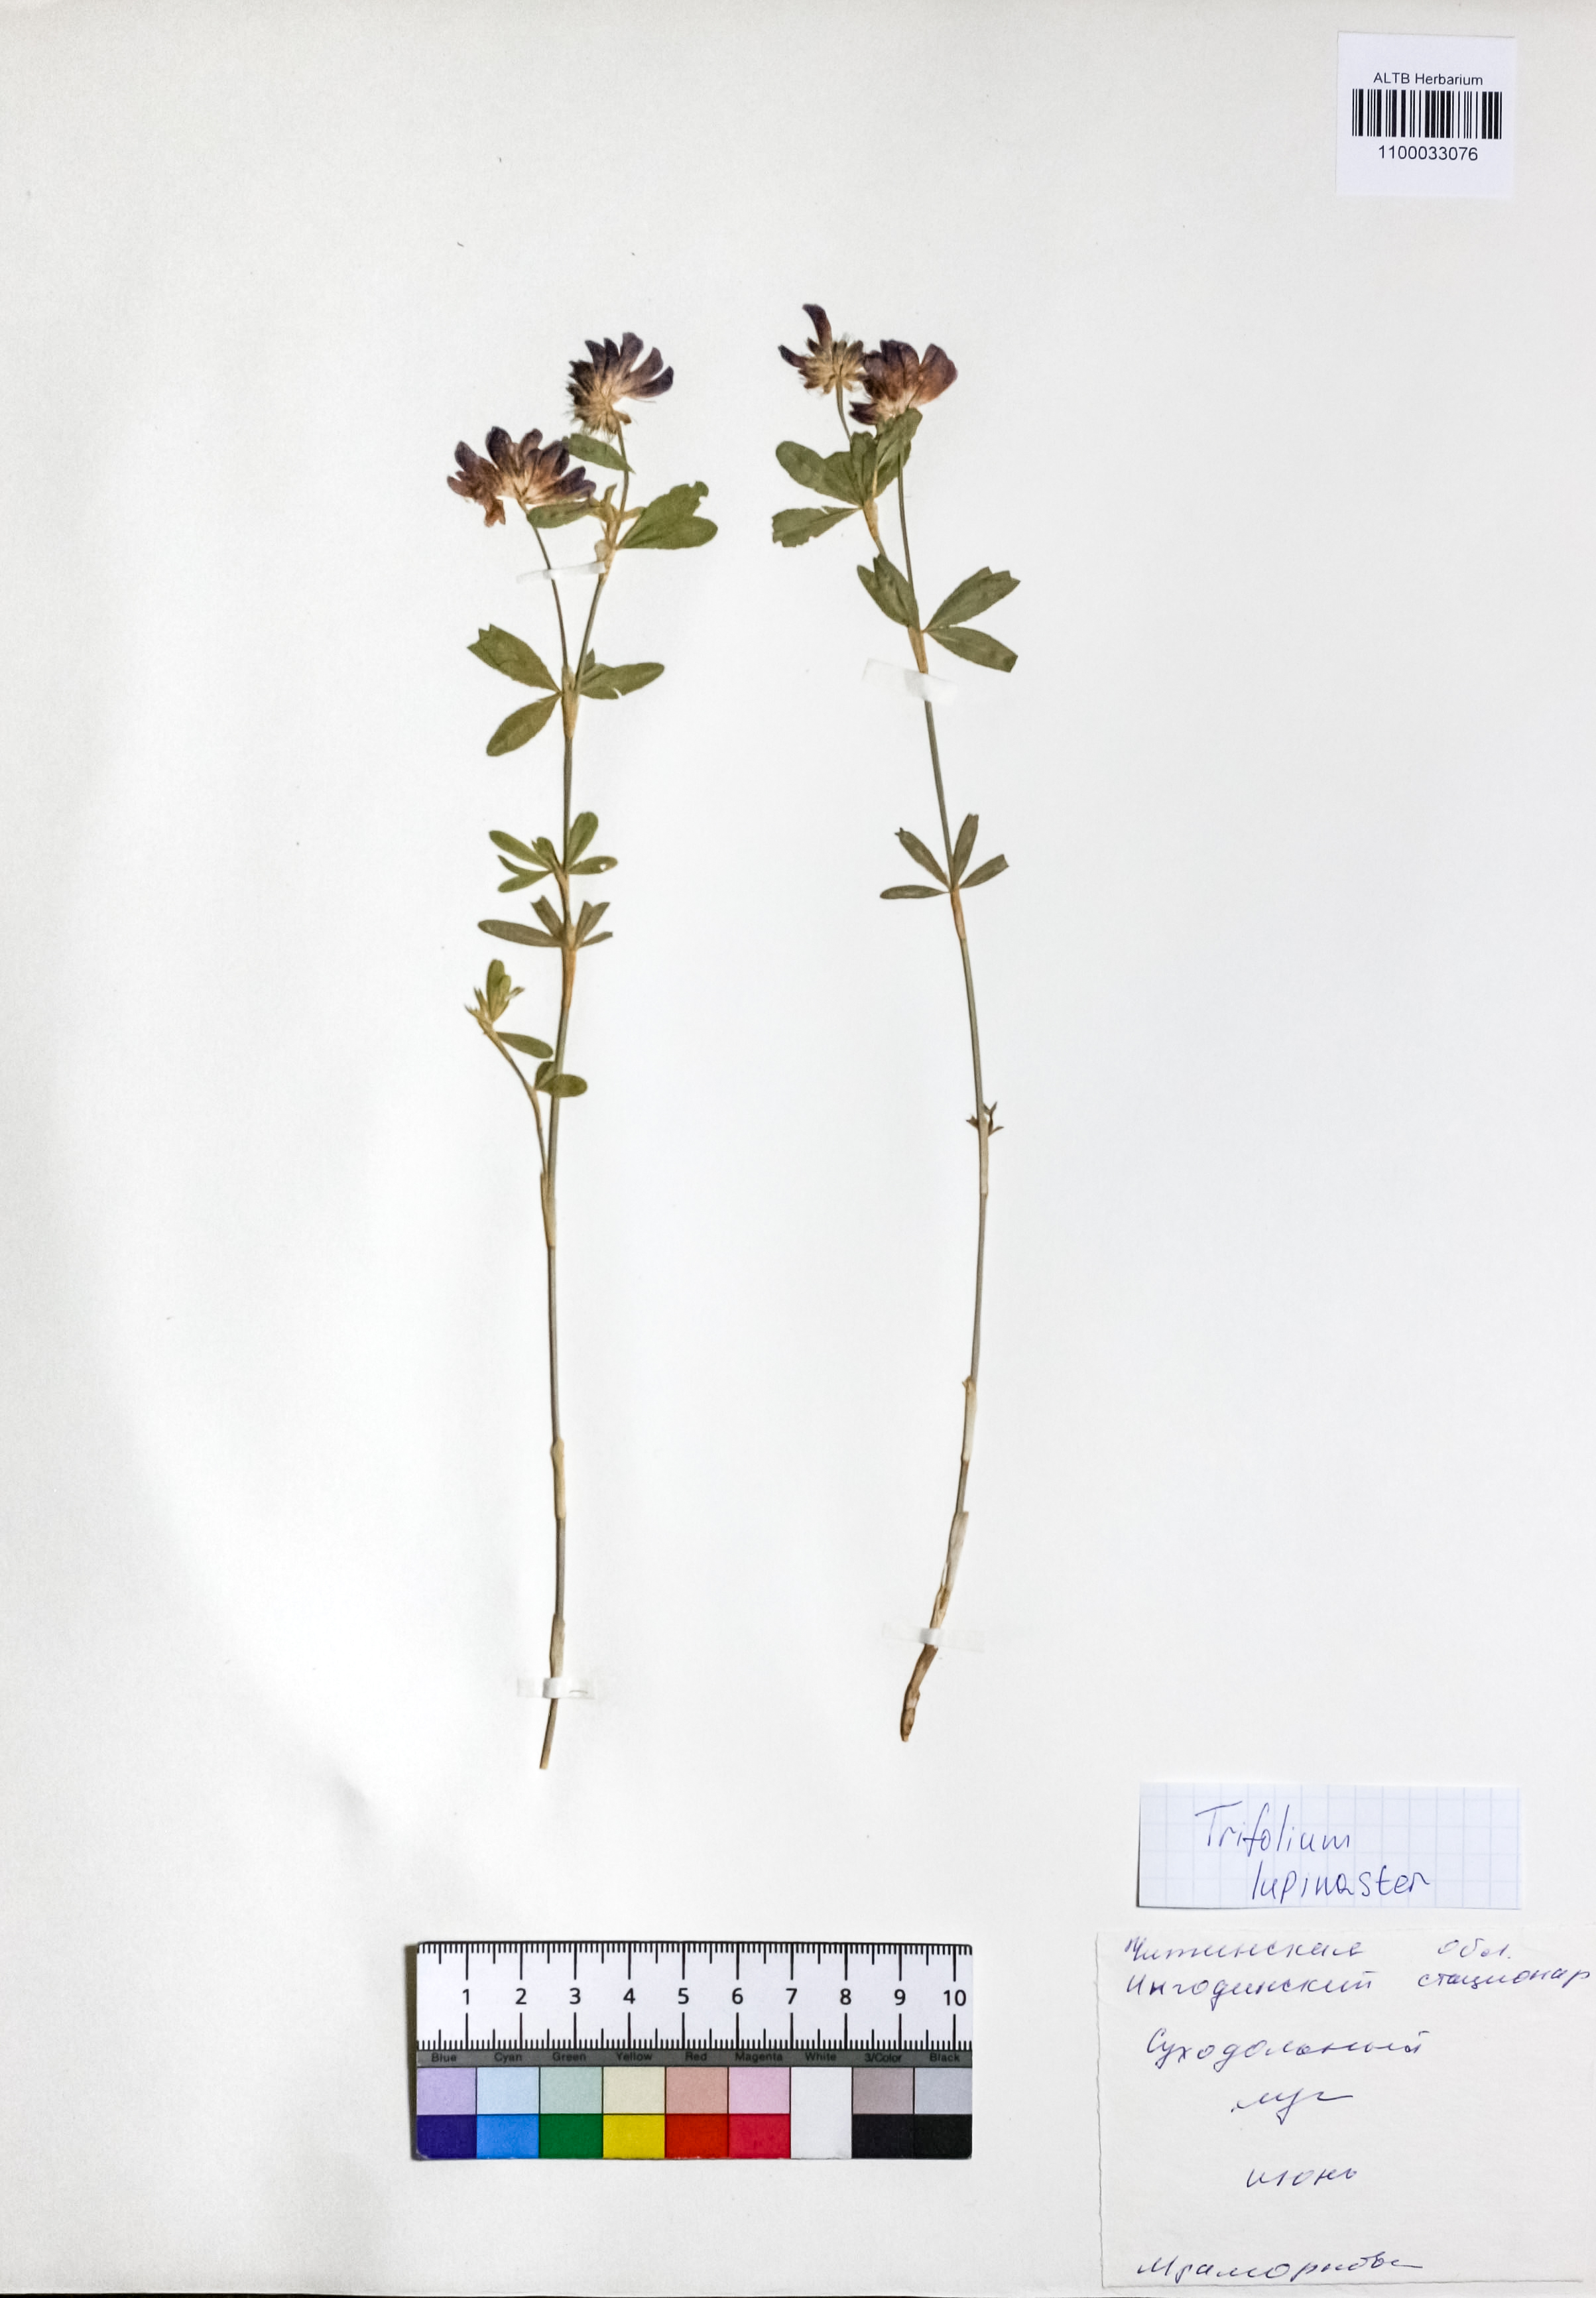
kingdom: Plantae
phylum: Tracheophyta
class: Magnoliopsida
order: Fabales
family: Fabaceae
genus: Trifolium
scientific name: Trifolium lupinaster
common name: Lupine clover
